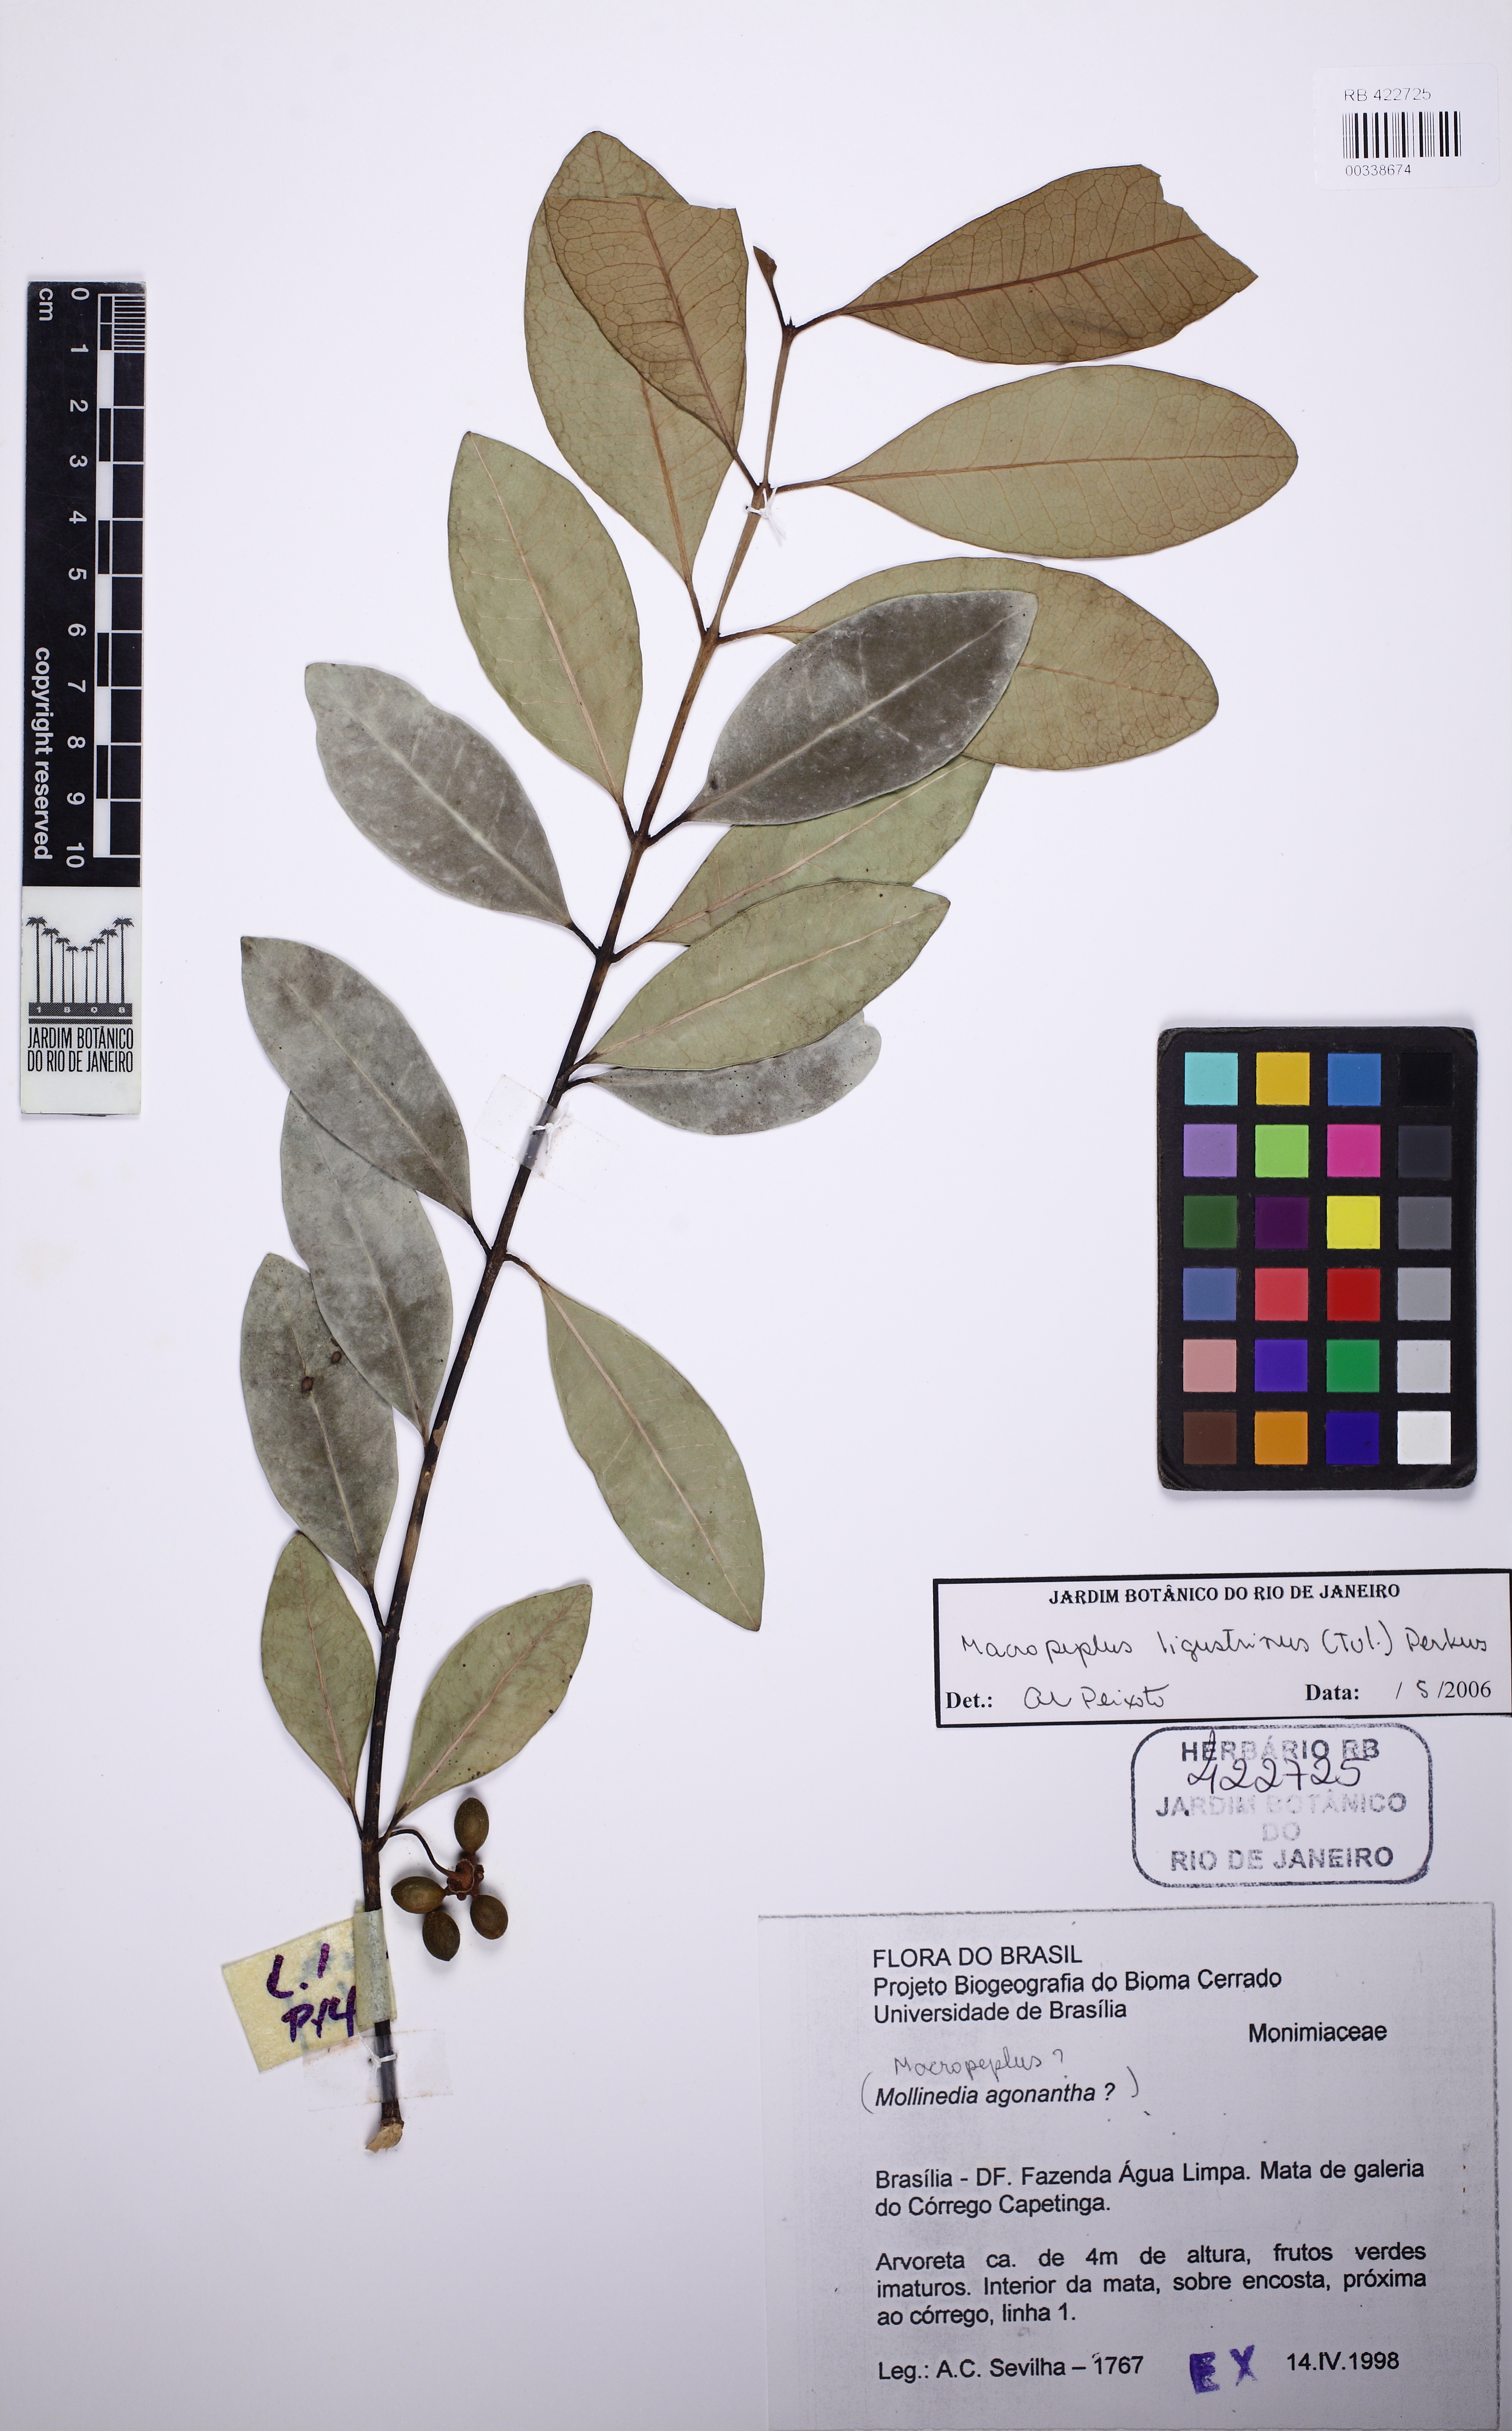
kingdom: Plantae
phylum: Tracheophyta
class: Magnoliopsida
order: Laurales
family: Monimiaceae
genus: Macropeplus
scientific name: Macropeplus ligustrinus
